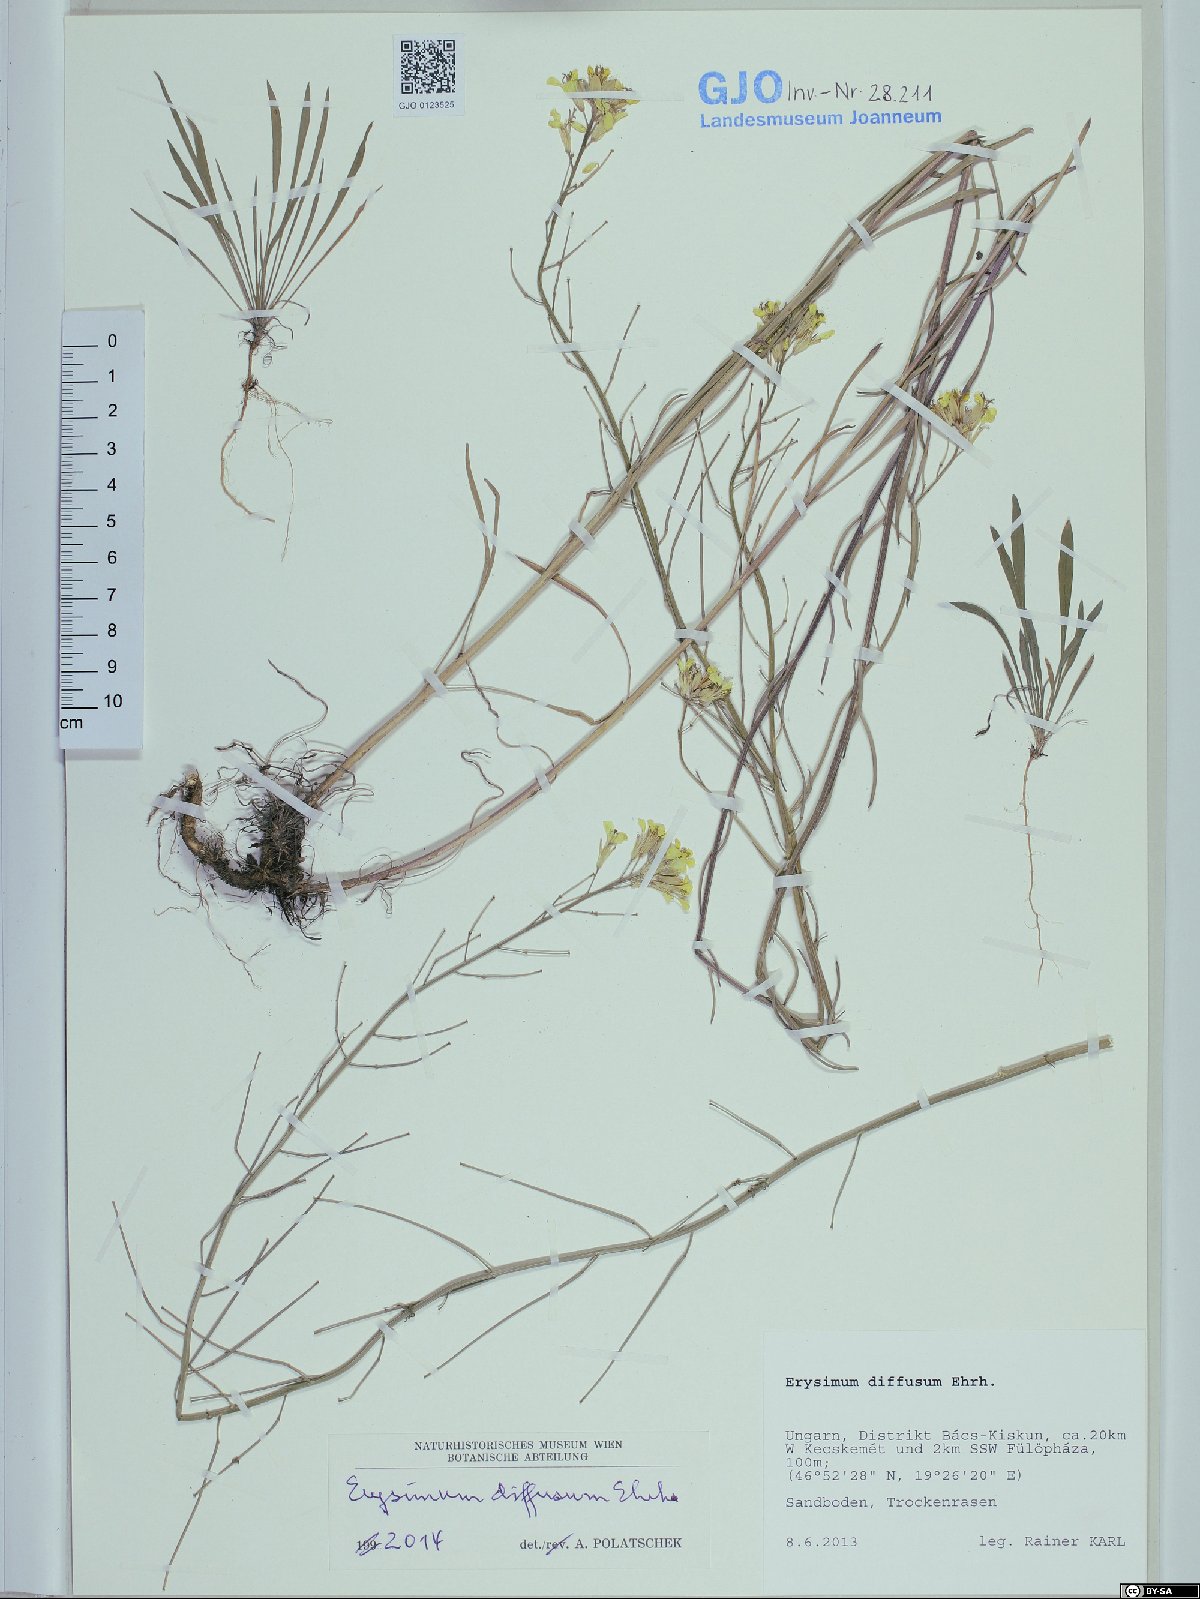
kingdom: Plantae
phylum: Tracheophyta
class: Magnoliopsida
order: Brassicales
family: Brassicaceae
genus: Erysimum
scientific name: Erysimum diffusum
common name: Diffuse wallflower
